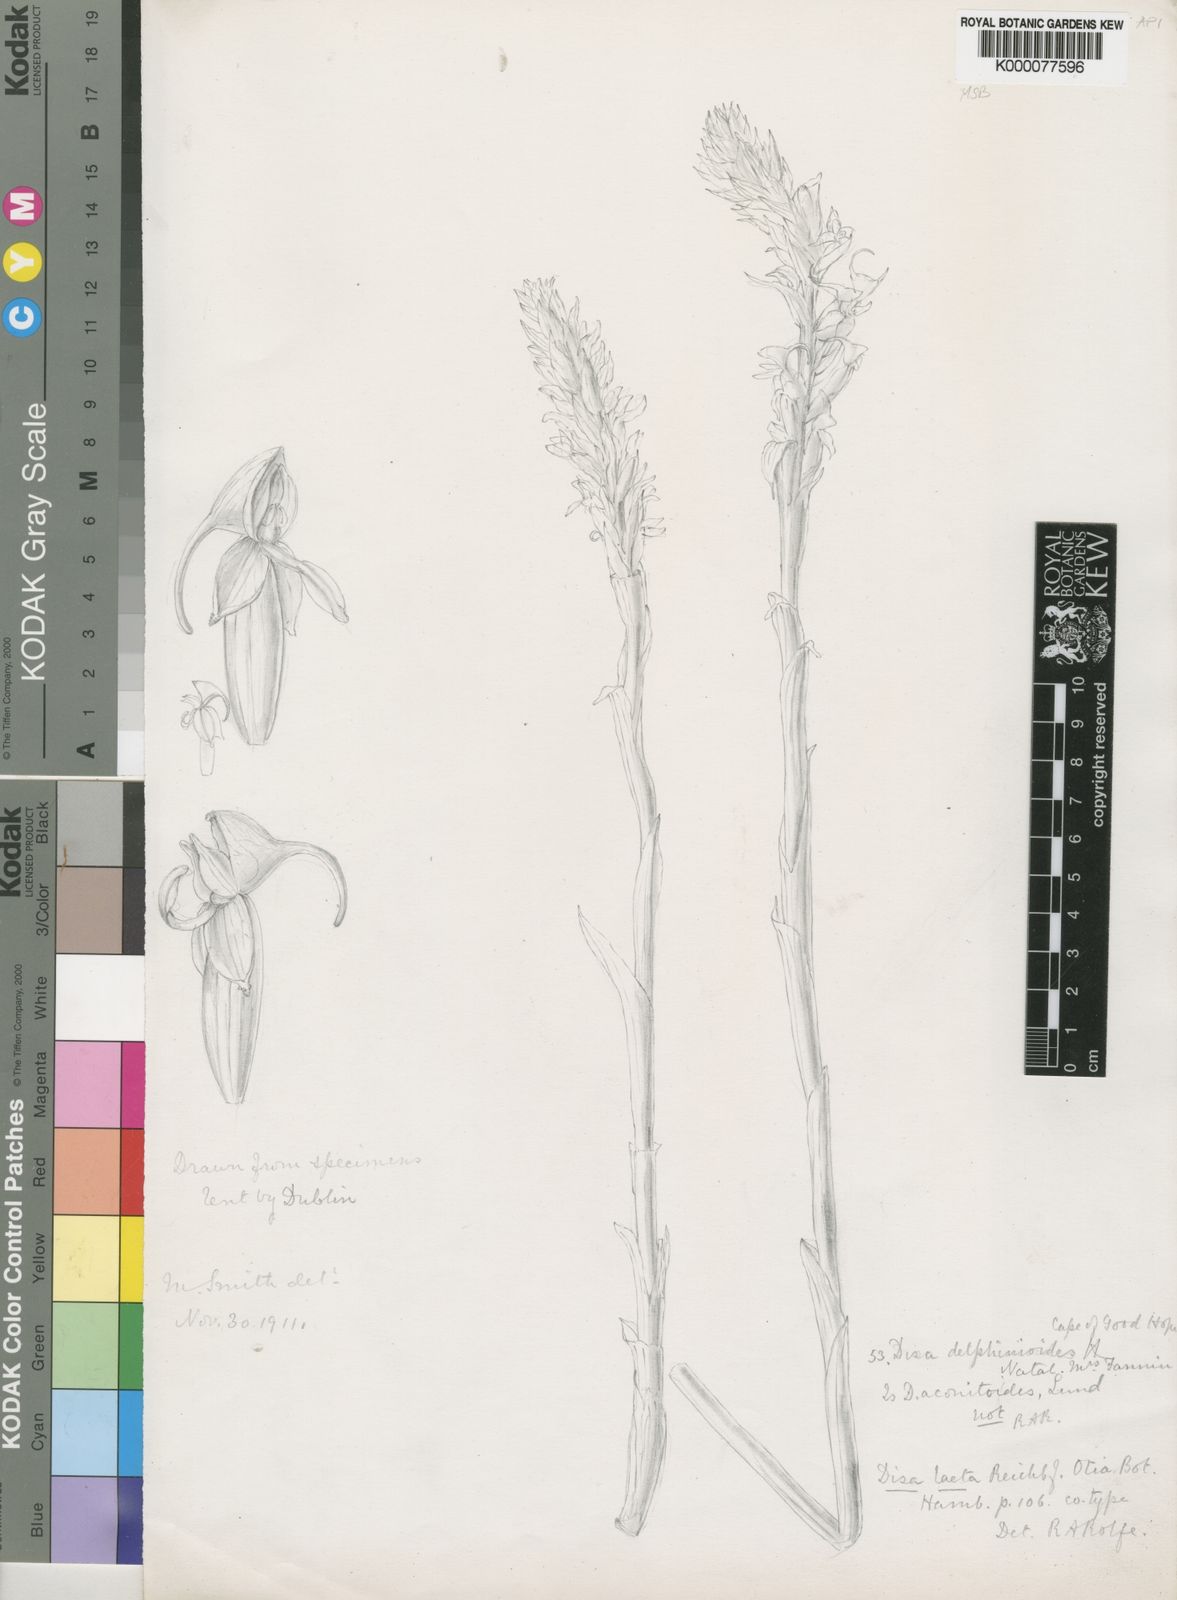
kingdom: Plantae
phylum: Tracheophyta
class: Liliopsida
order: Asparagales
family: Orchidaceae
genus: Disa
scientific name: Disa
